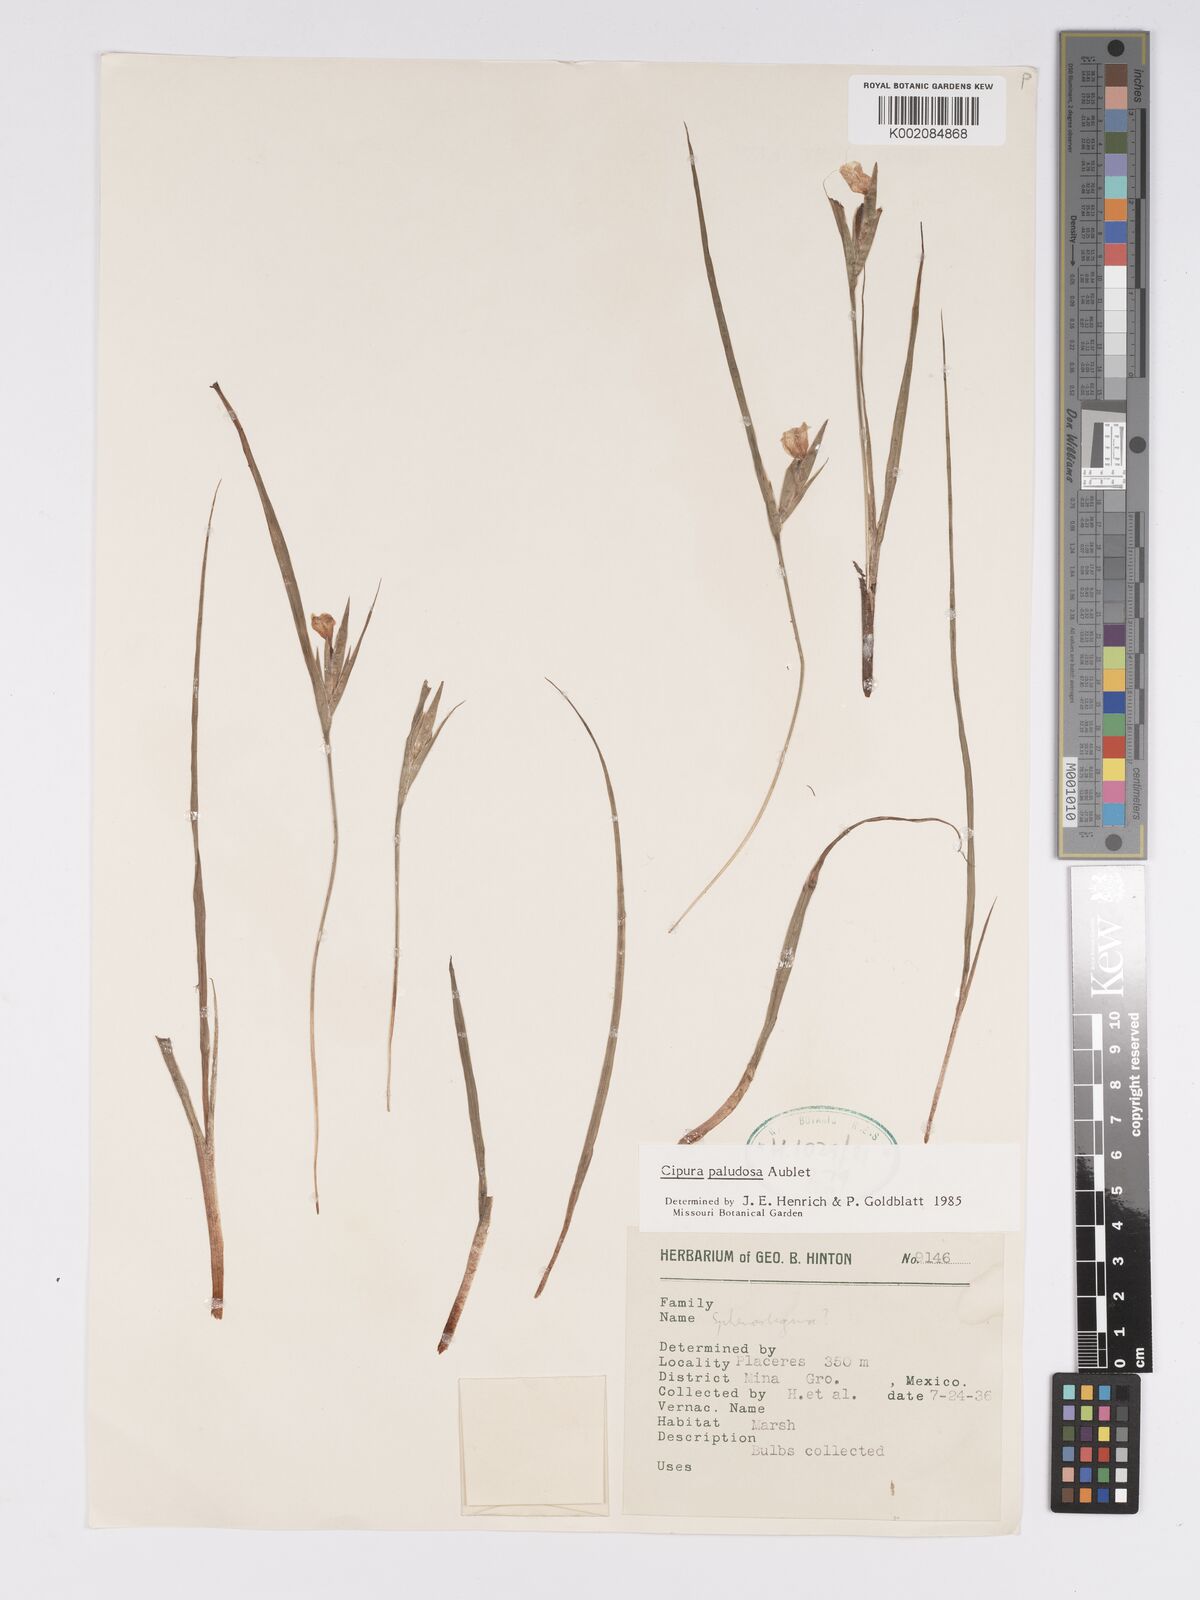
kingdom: Plantae
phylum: Tracheophyta
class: Liliopsida
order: Asparagales
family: Iridaceae
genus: Cipura
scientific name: Cipura paludosa
